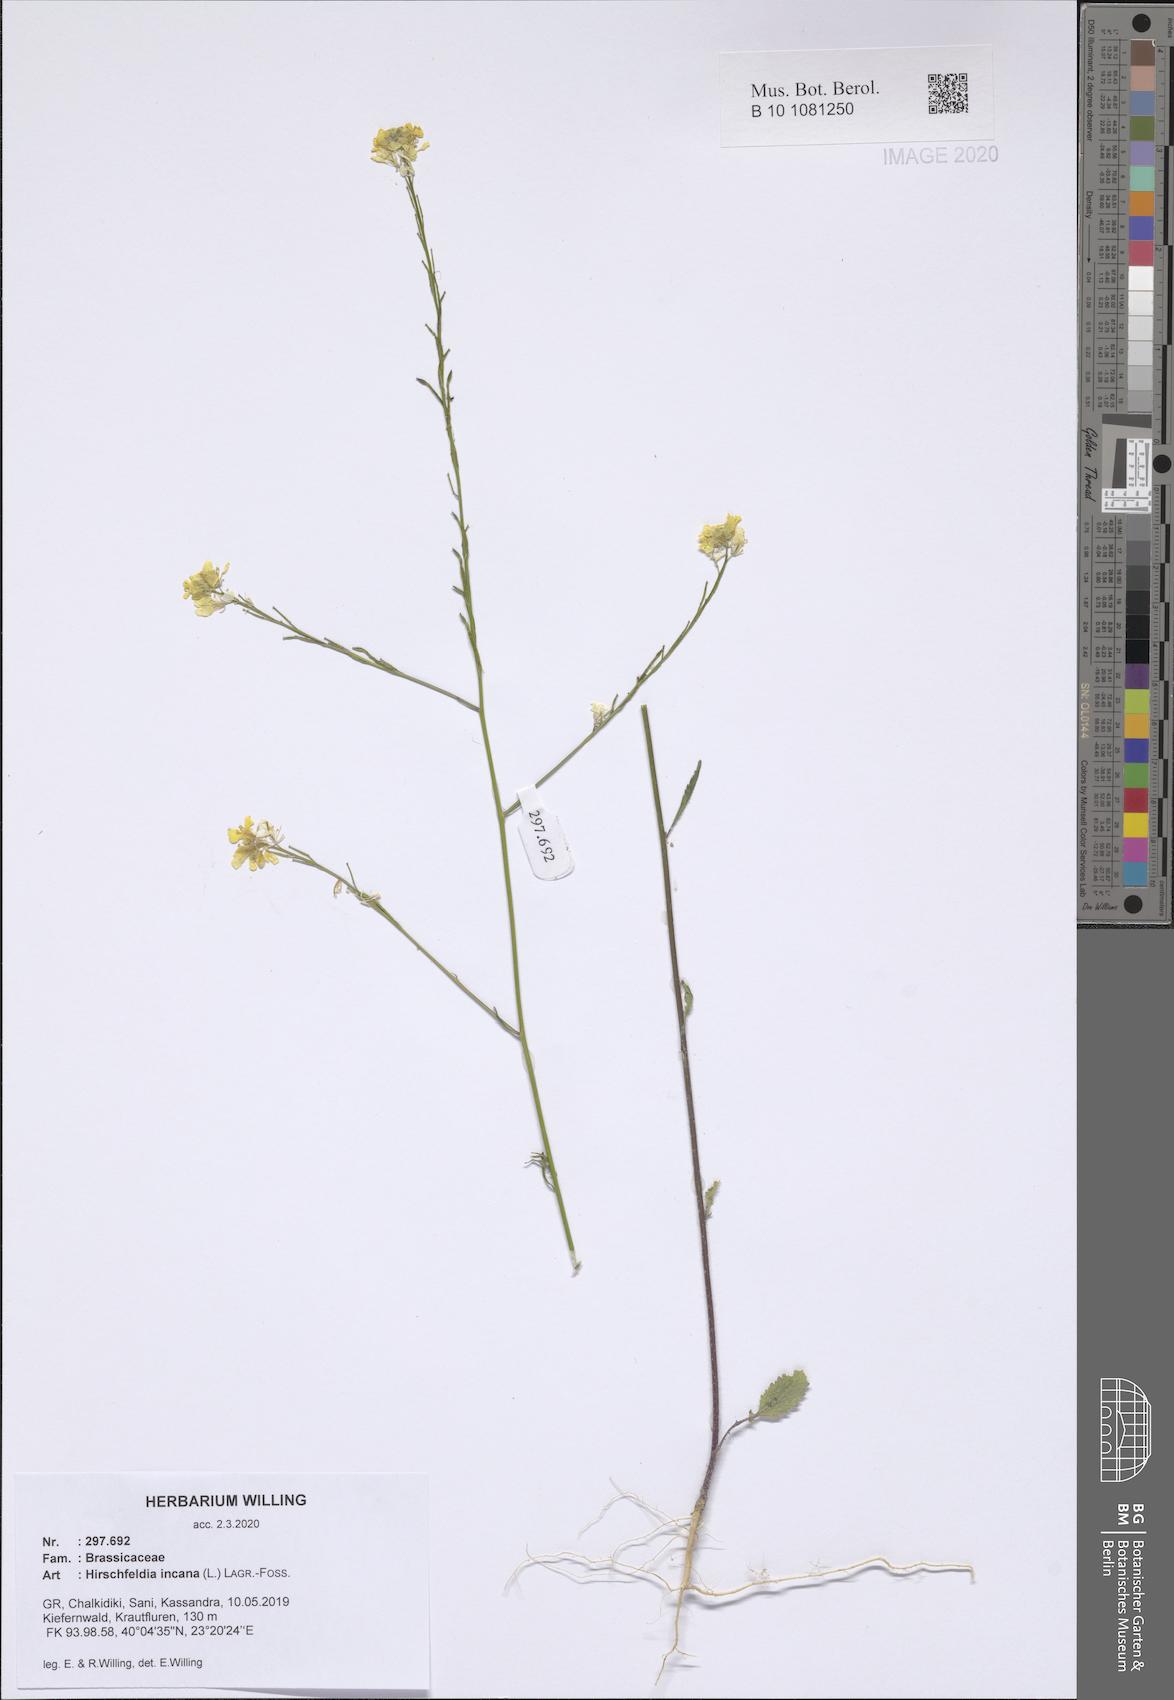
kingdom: Plantae
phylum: Tracheophyta
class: Magnoliopsida
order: Brassicales
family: Brassicaceae
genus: Hirschfeldia
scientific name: Hirschfeldia incana
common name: Hoary mustard
